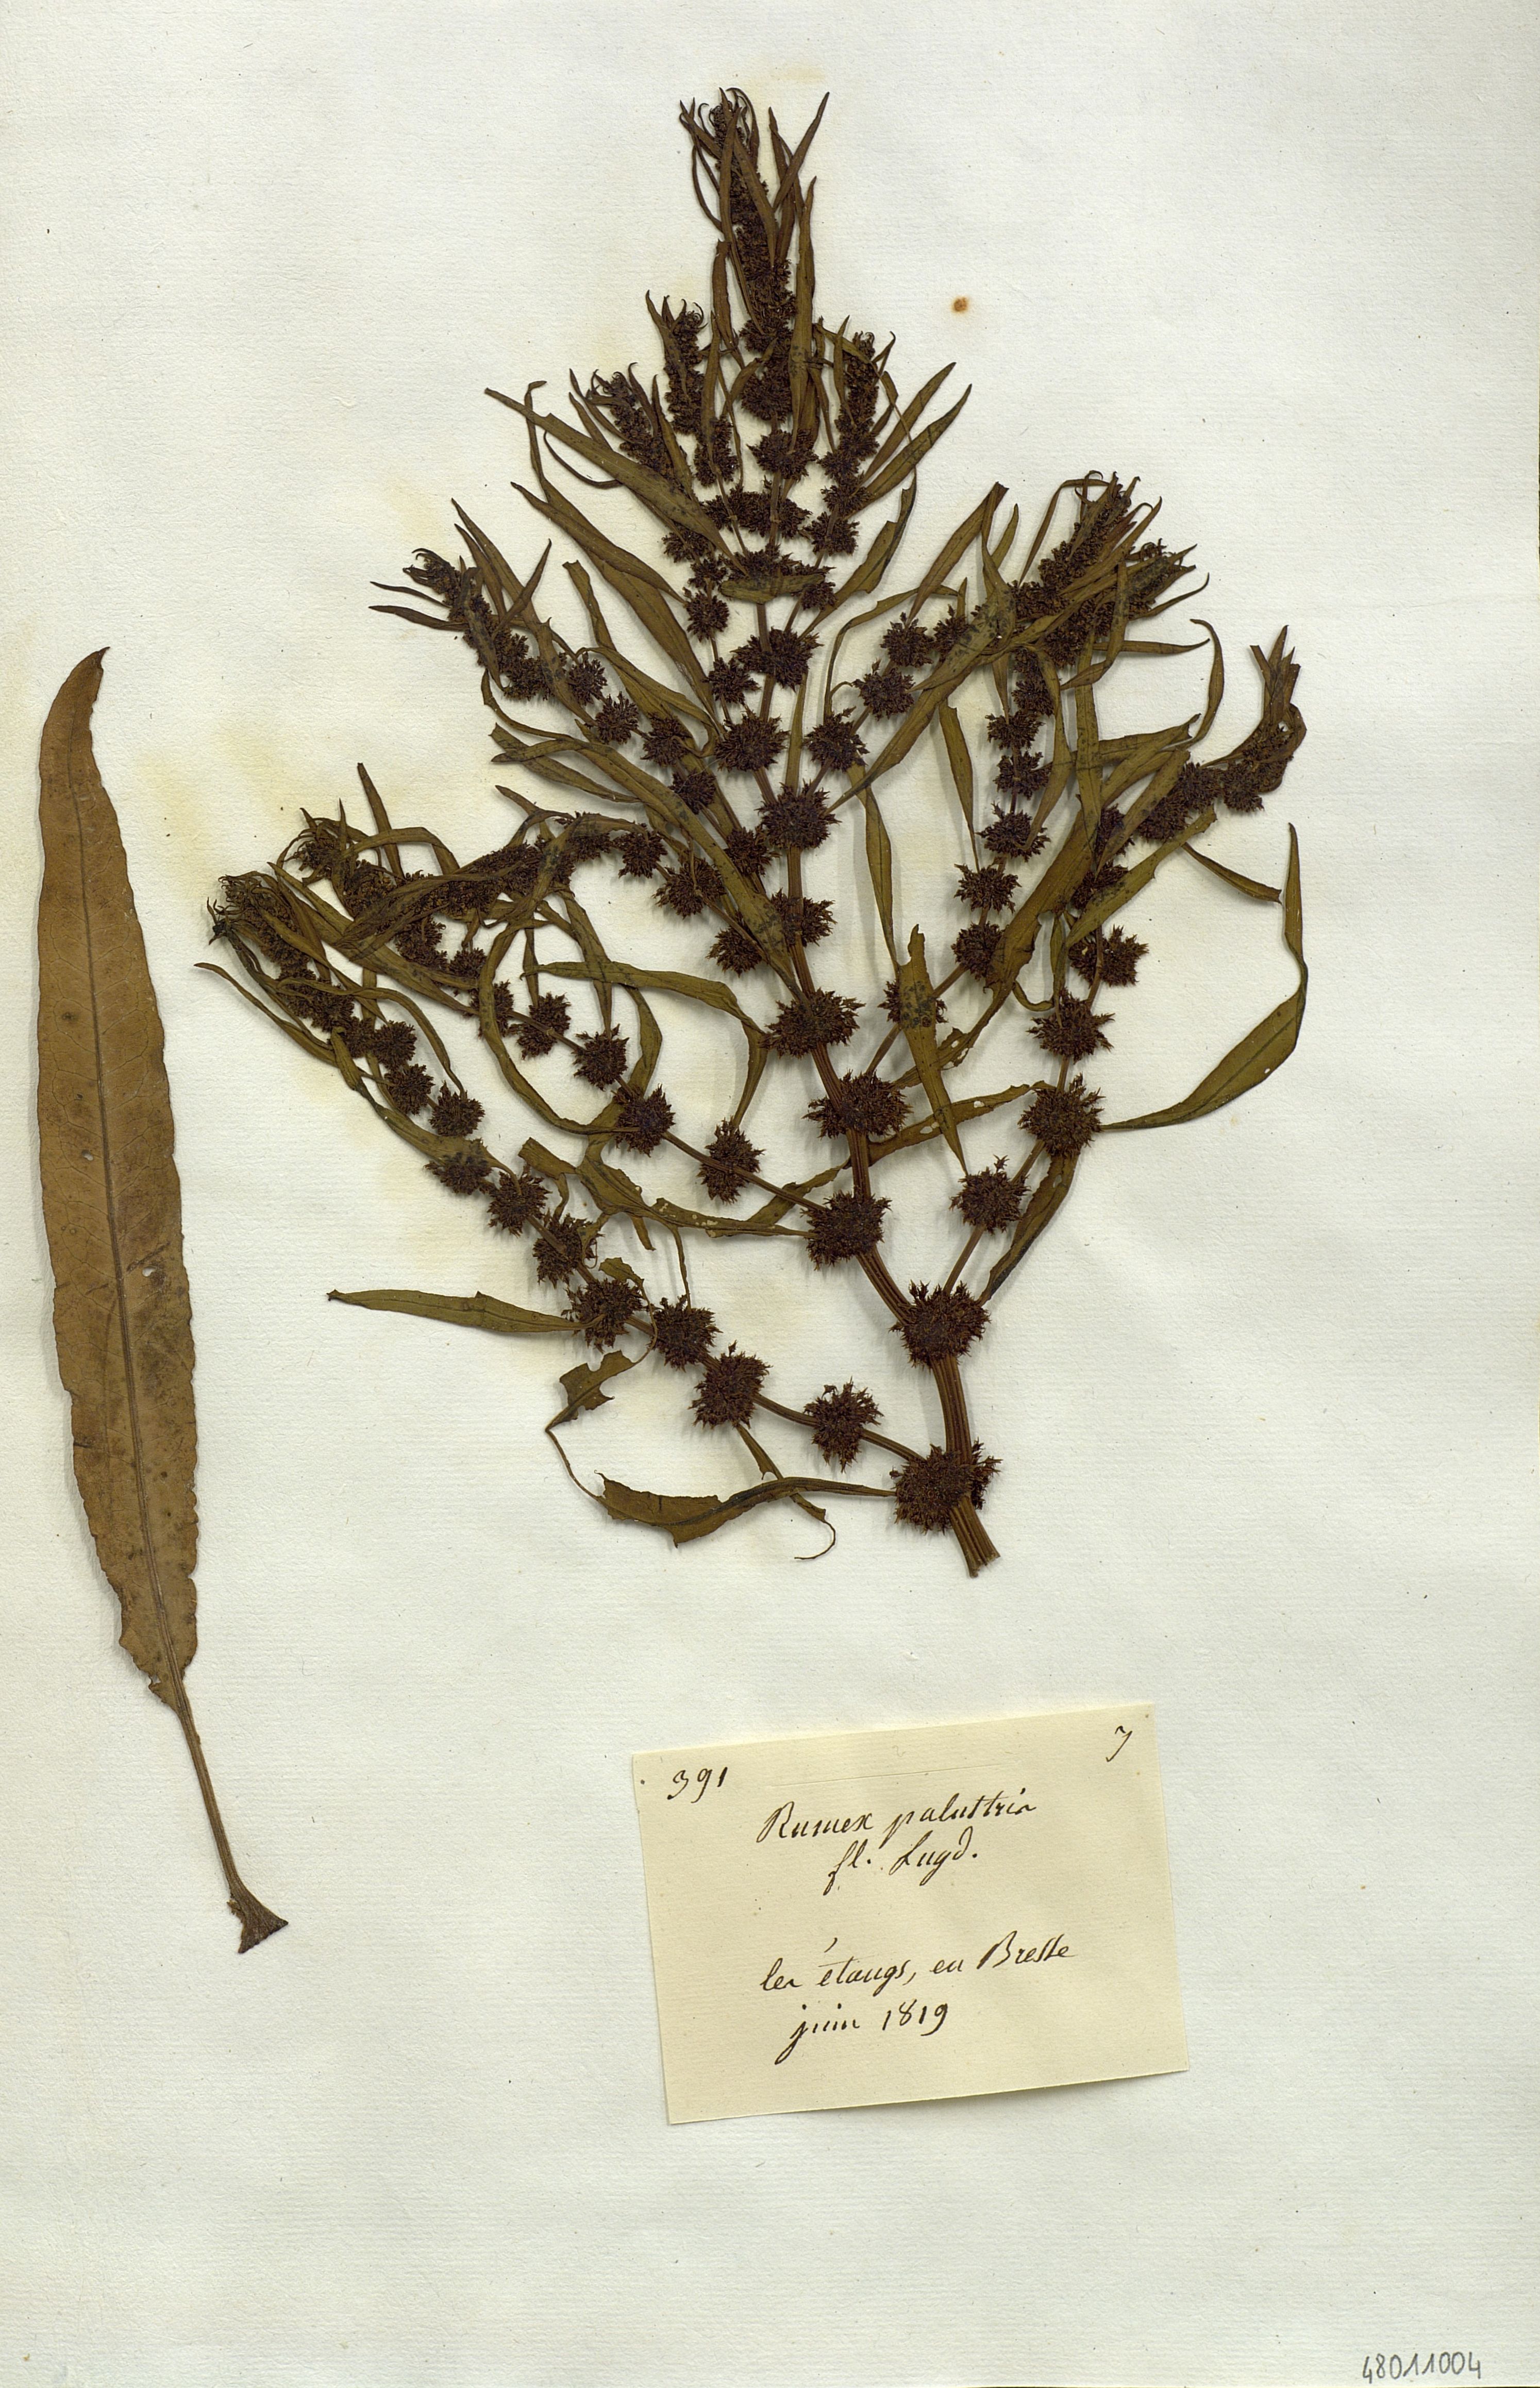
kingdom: Plantae
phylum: Tracheophyta
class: Magnoliopsida
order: Caryophyllales
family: Polygonaceae
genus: Rumex
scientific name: Rumex palustris
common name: Marsh dock
